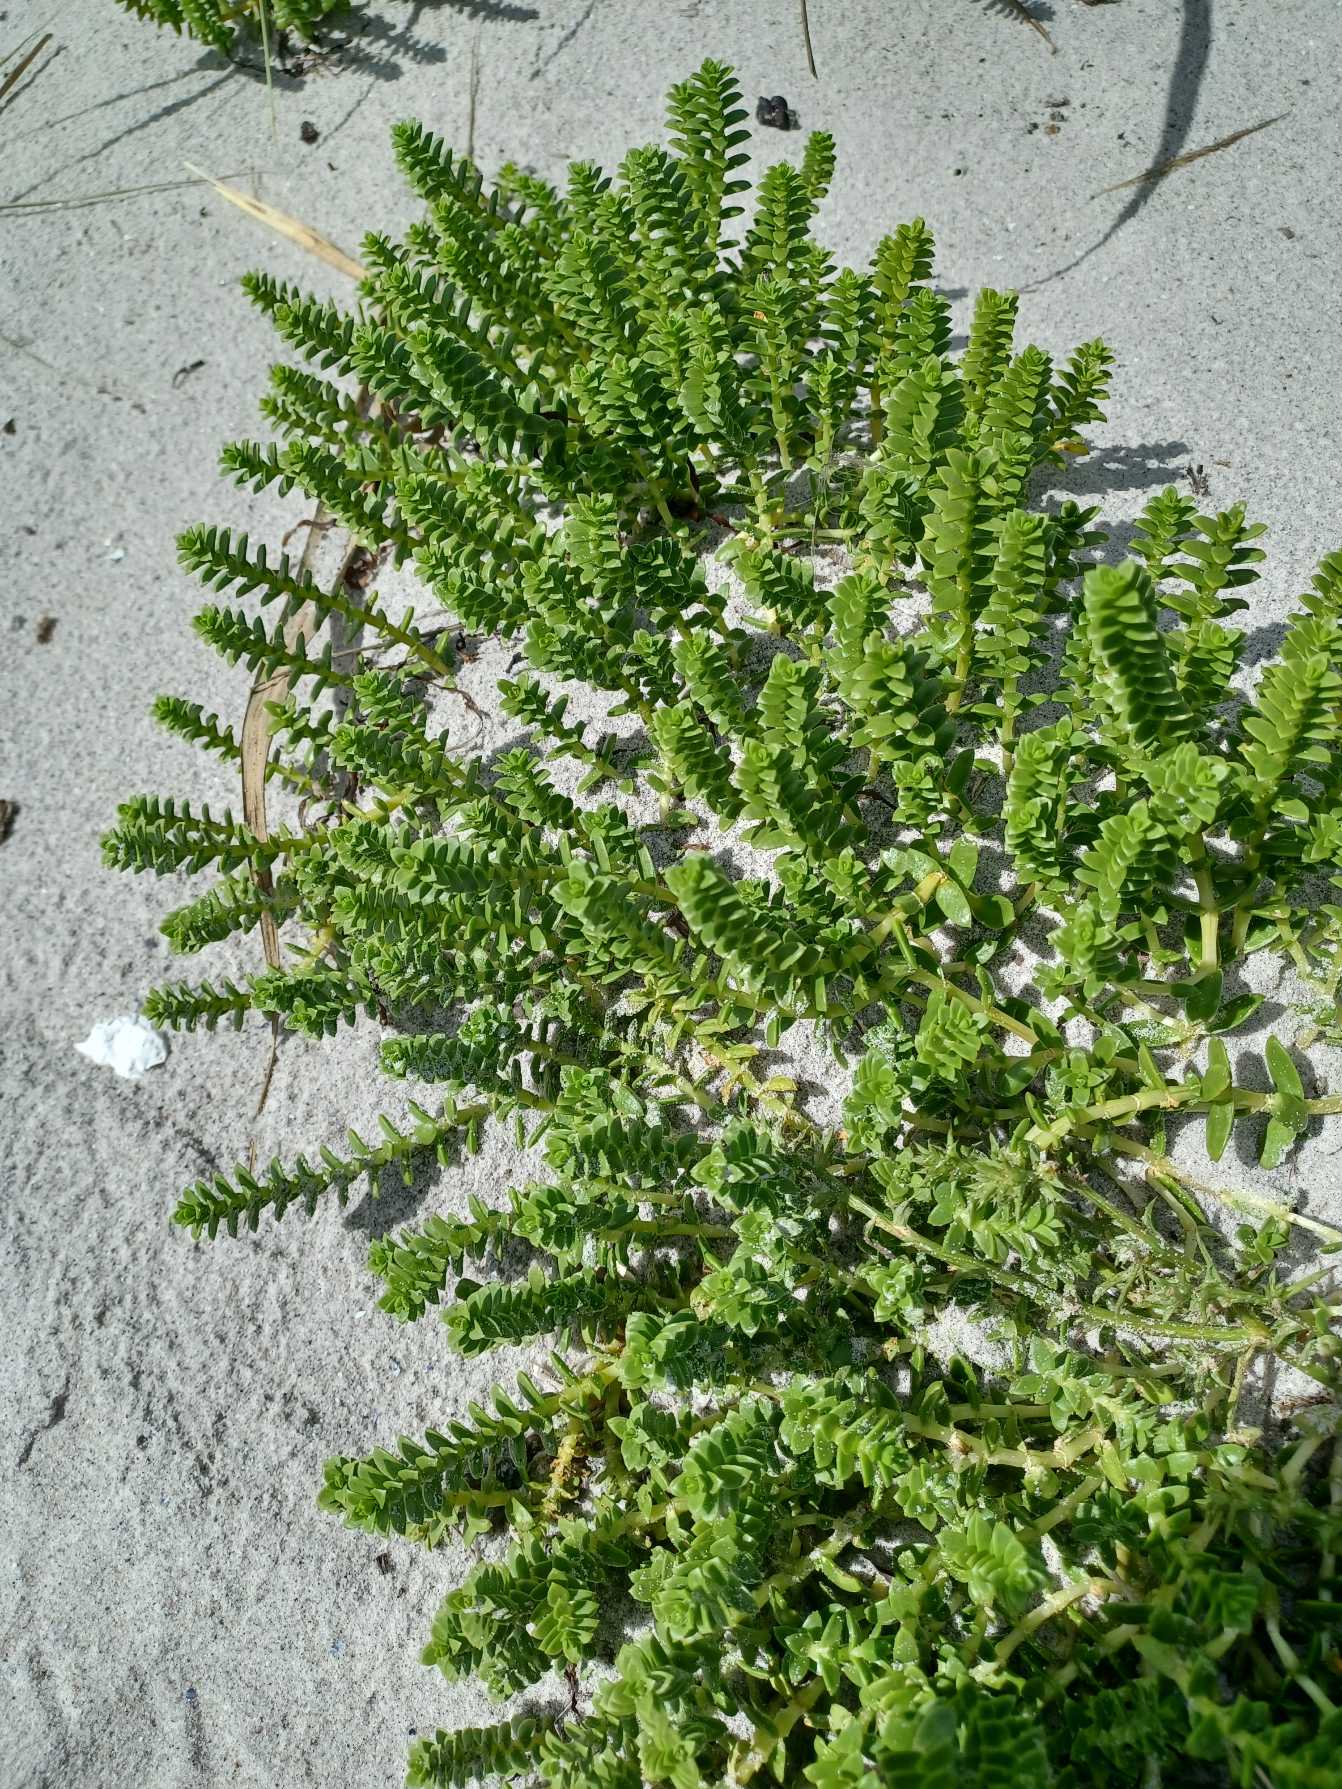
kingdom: Plantae
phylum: Tracheophyta
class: Magnoliopsida
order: Caryophyllales
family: Caryophyllaceae
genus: Honckenya
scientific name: Honckenya peploides
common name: Strandarve
